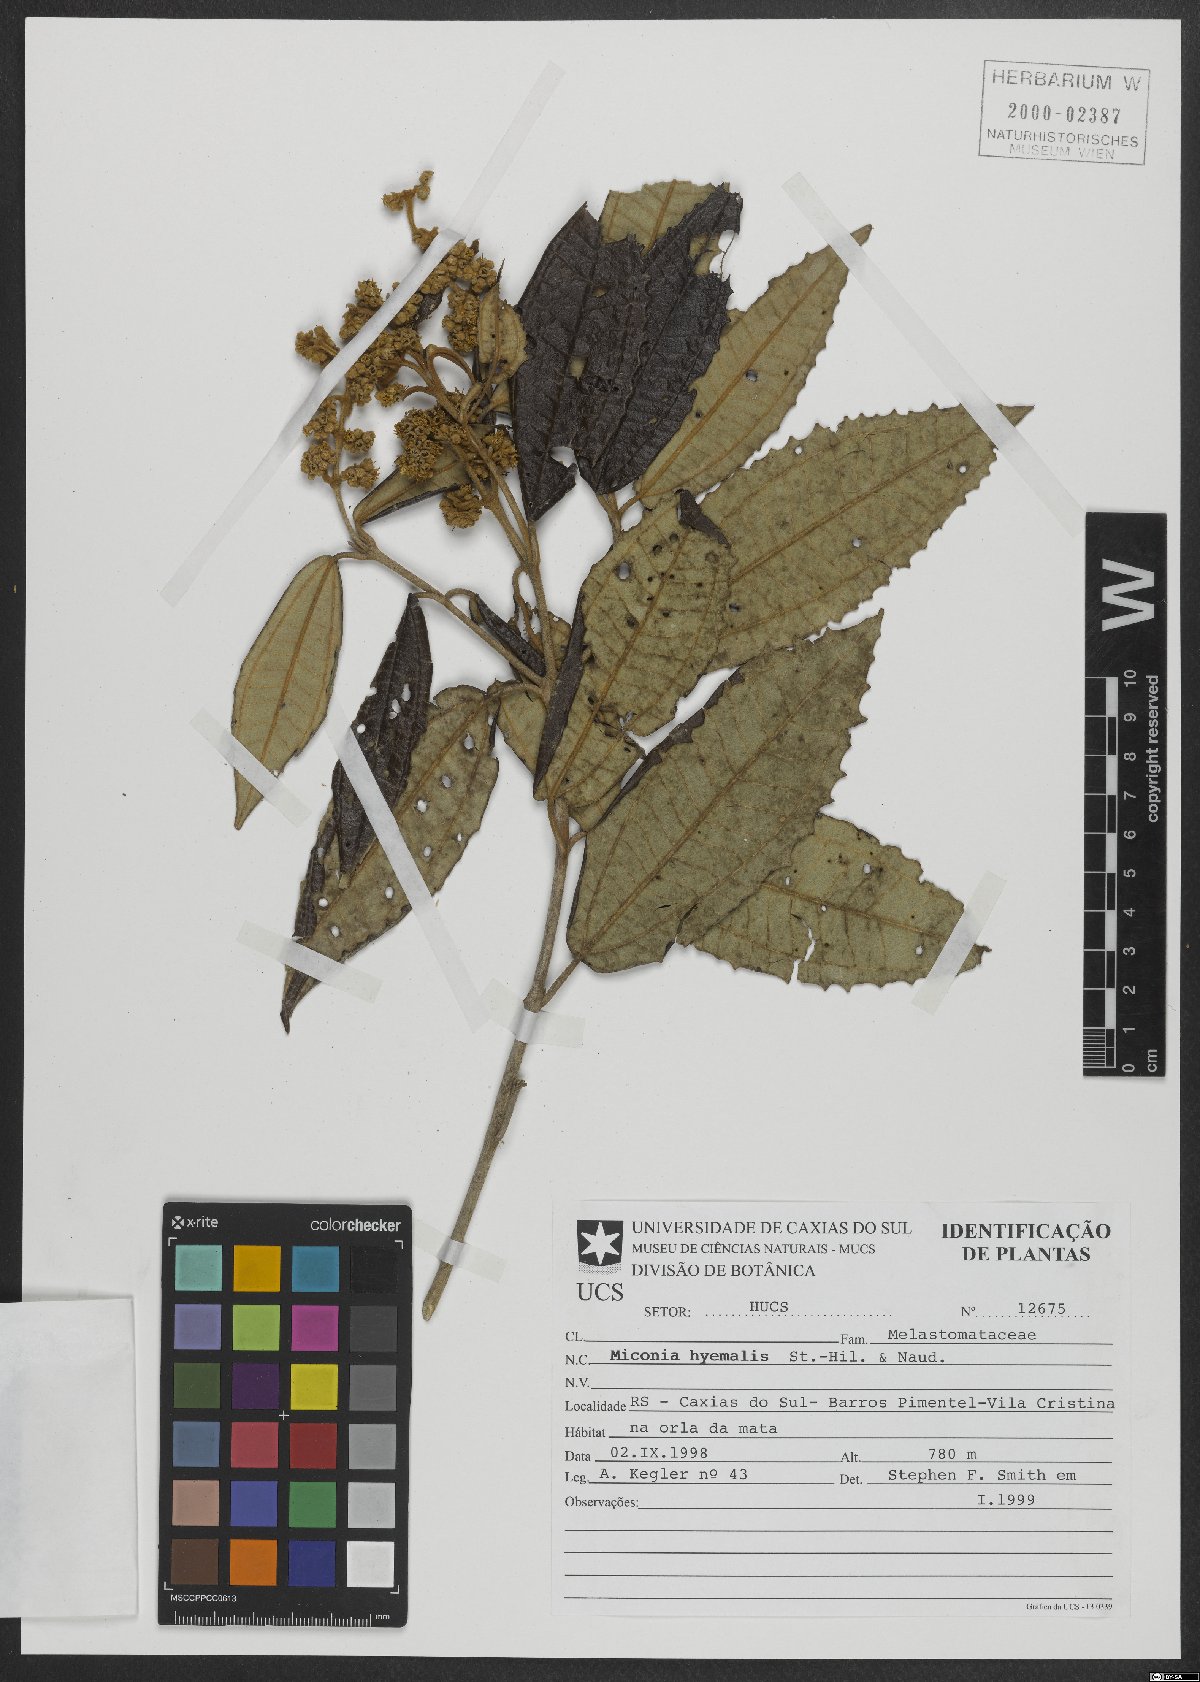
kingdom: Plantae
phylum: Tracheophyta
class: Magnoliopsida
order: Myrtales
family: Melastomataceae
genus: Miconia
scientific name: Miconia hyemalis
